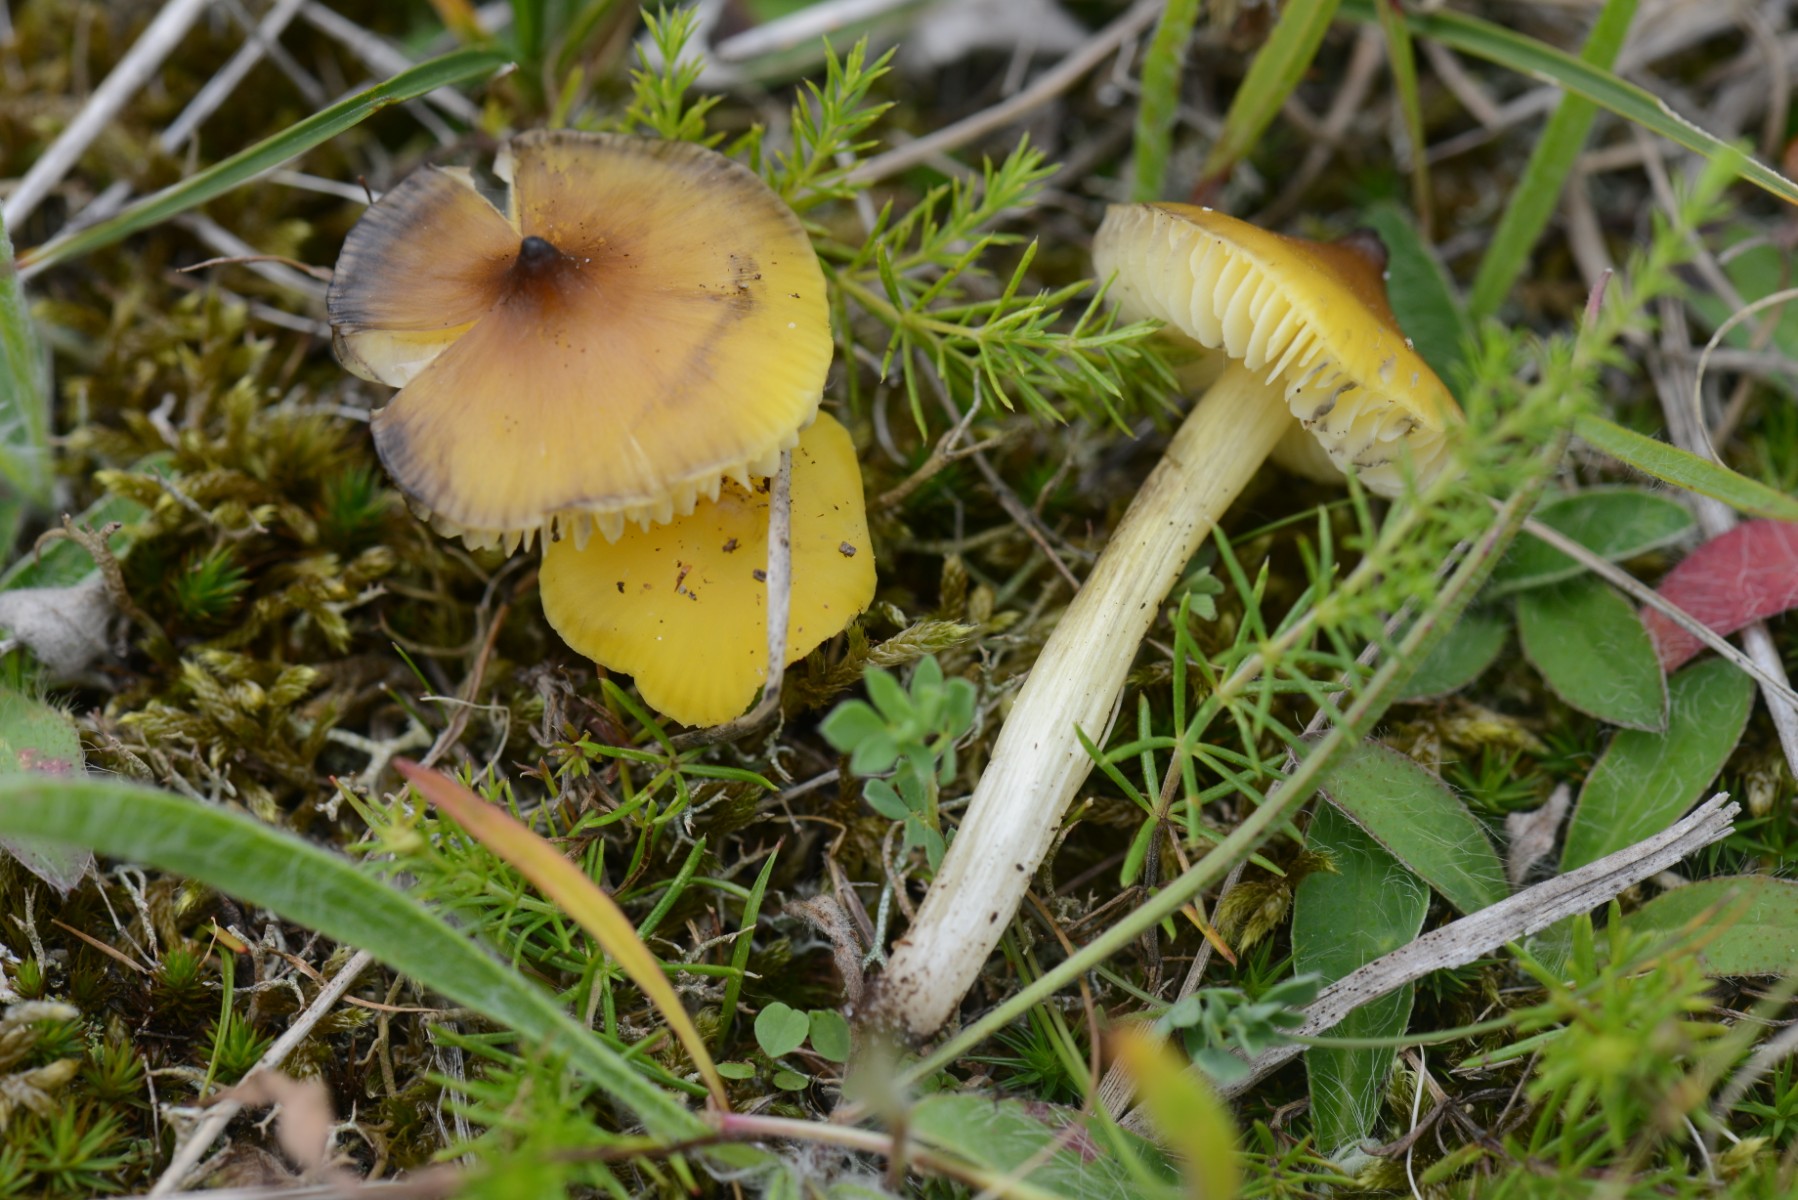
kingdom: Fungi
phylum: Basidiomycota
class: Agaricomycetes
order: Agaricales
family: Hygrophoraceae
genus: Hygrocybe
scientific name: Hygrocybe conica
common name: kegle-vokshat
